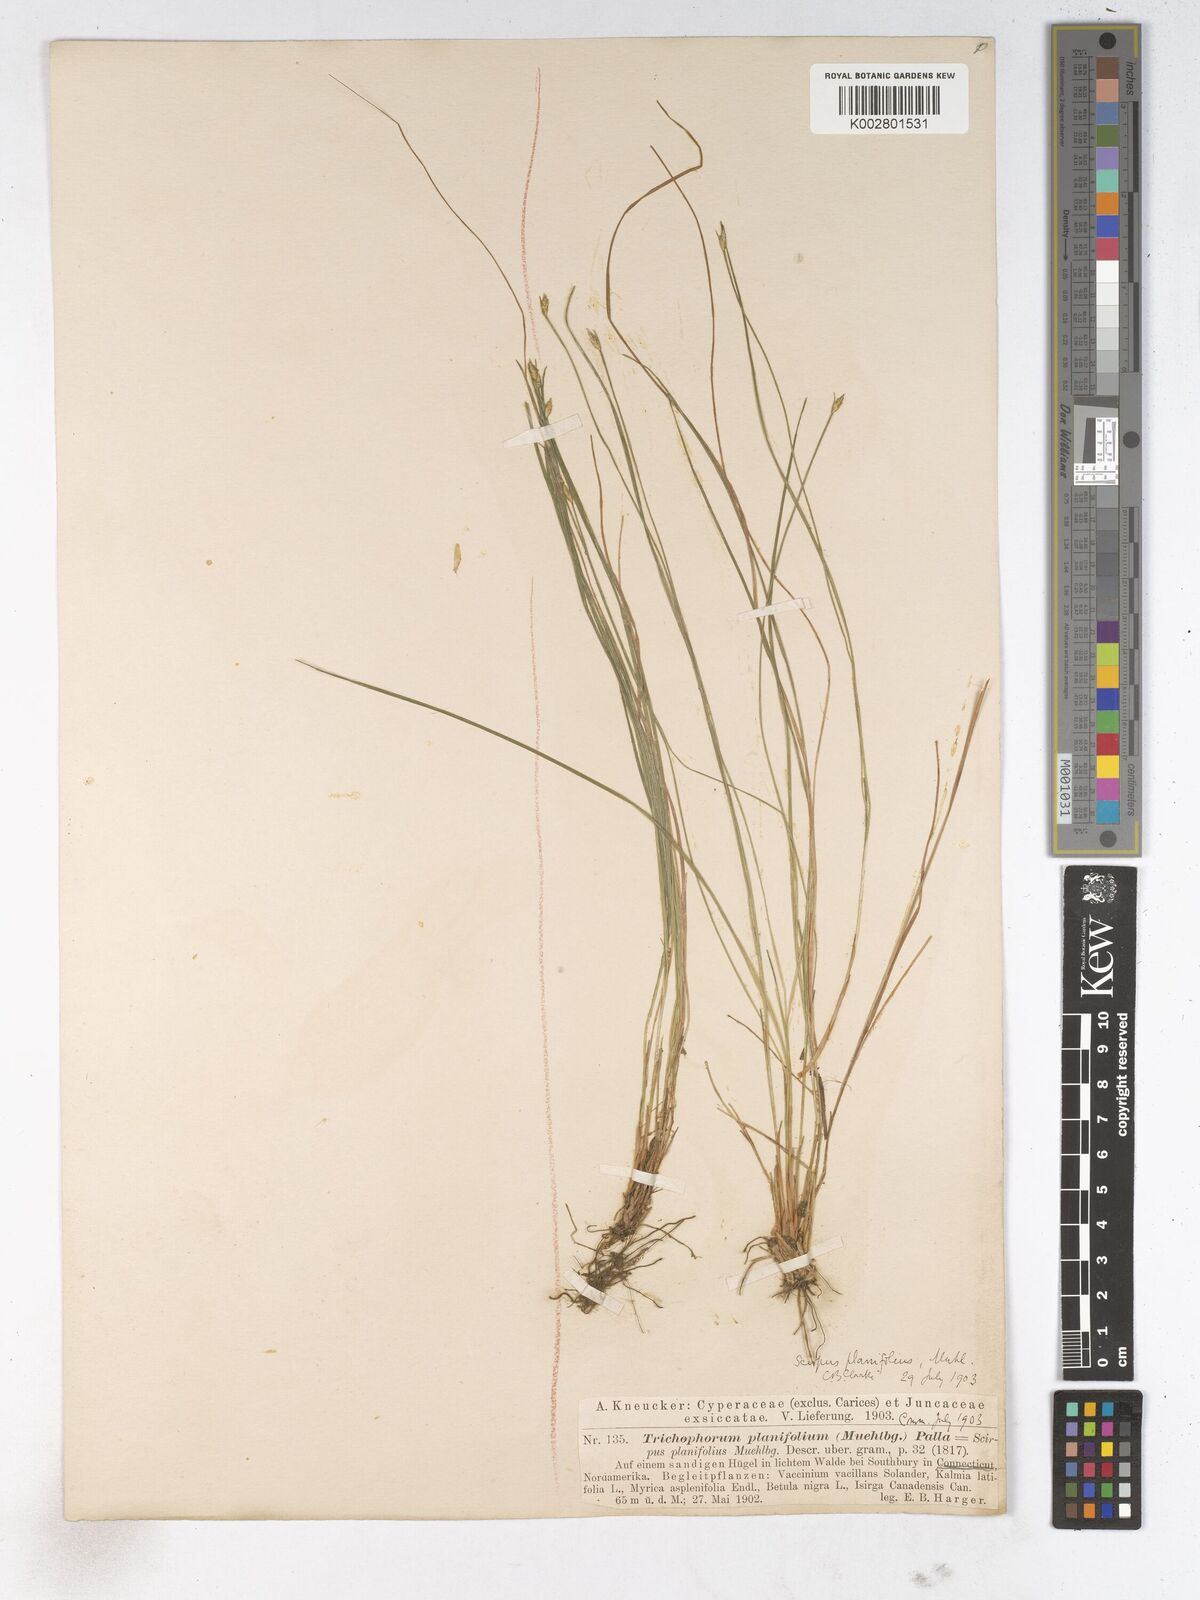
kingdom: Plantae
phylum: Tracheophyta
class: Liliopsida
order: Poales
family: Cyperaceae
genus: Trichophorum
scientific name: Trichophorum planifolium
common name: Bashful bulrush
